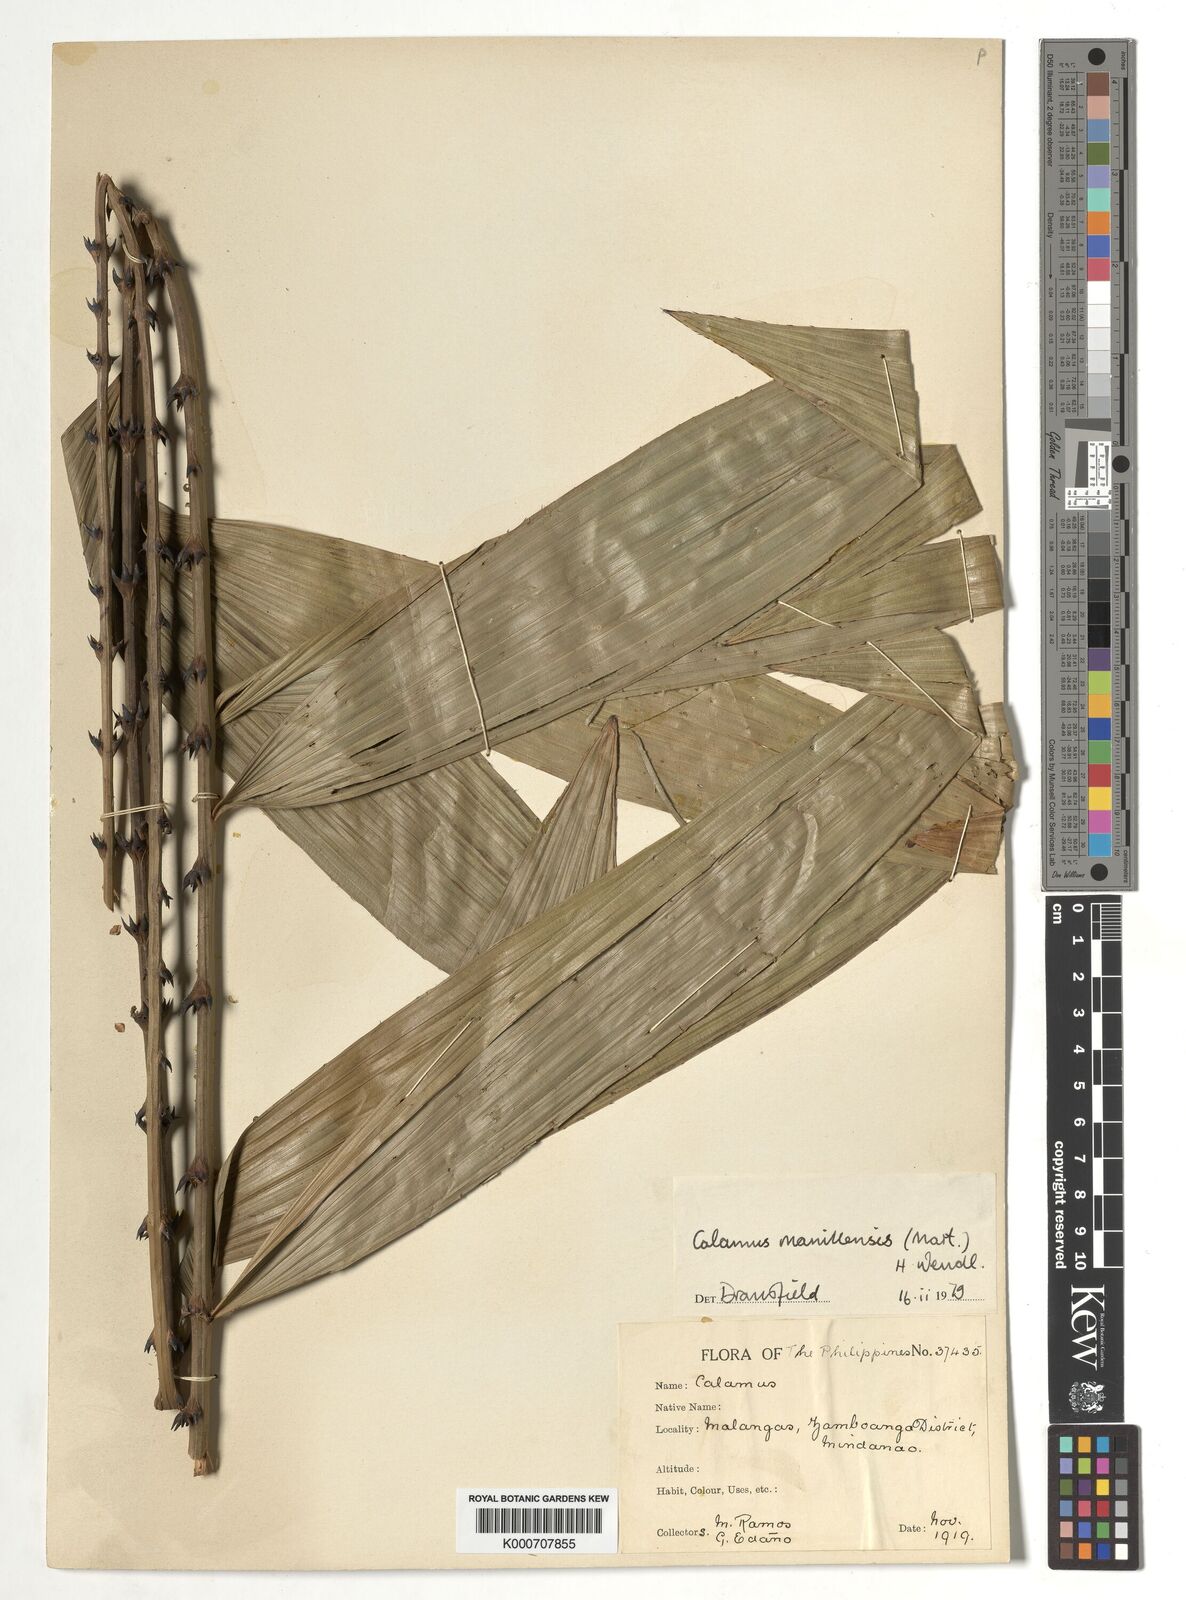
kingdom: Plantae
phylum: Tracheophyta
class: Liliopsida
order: Arecales
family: Arecaceae
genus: Calamus
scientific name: Calamus manillensis
